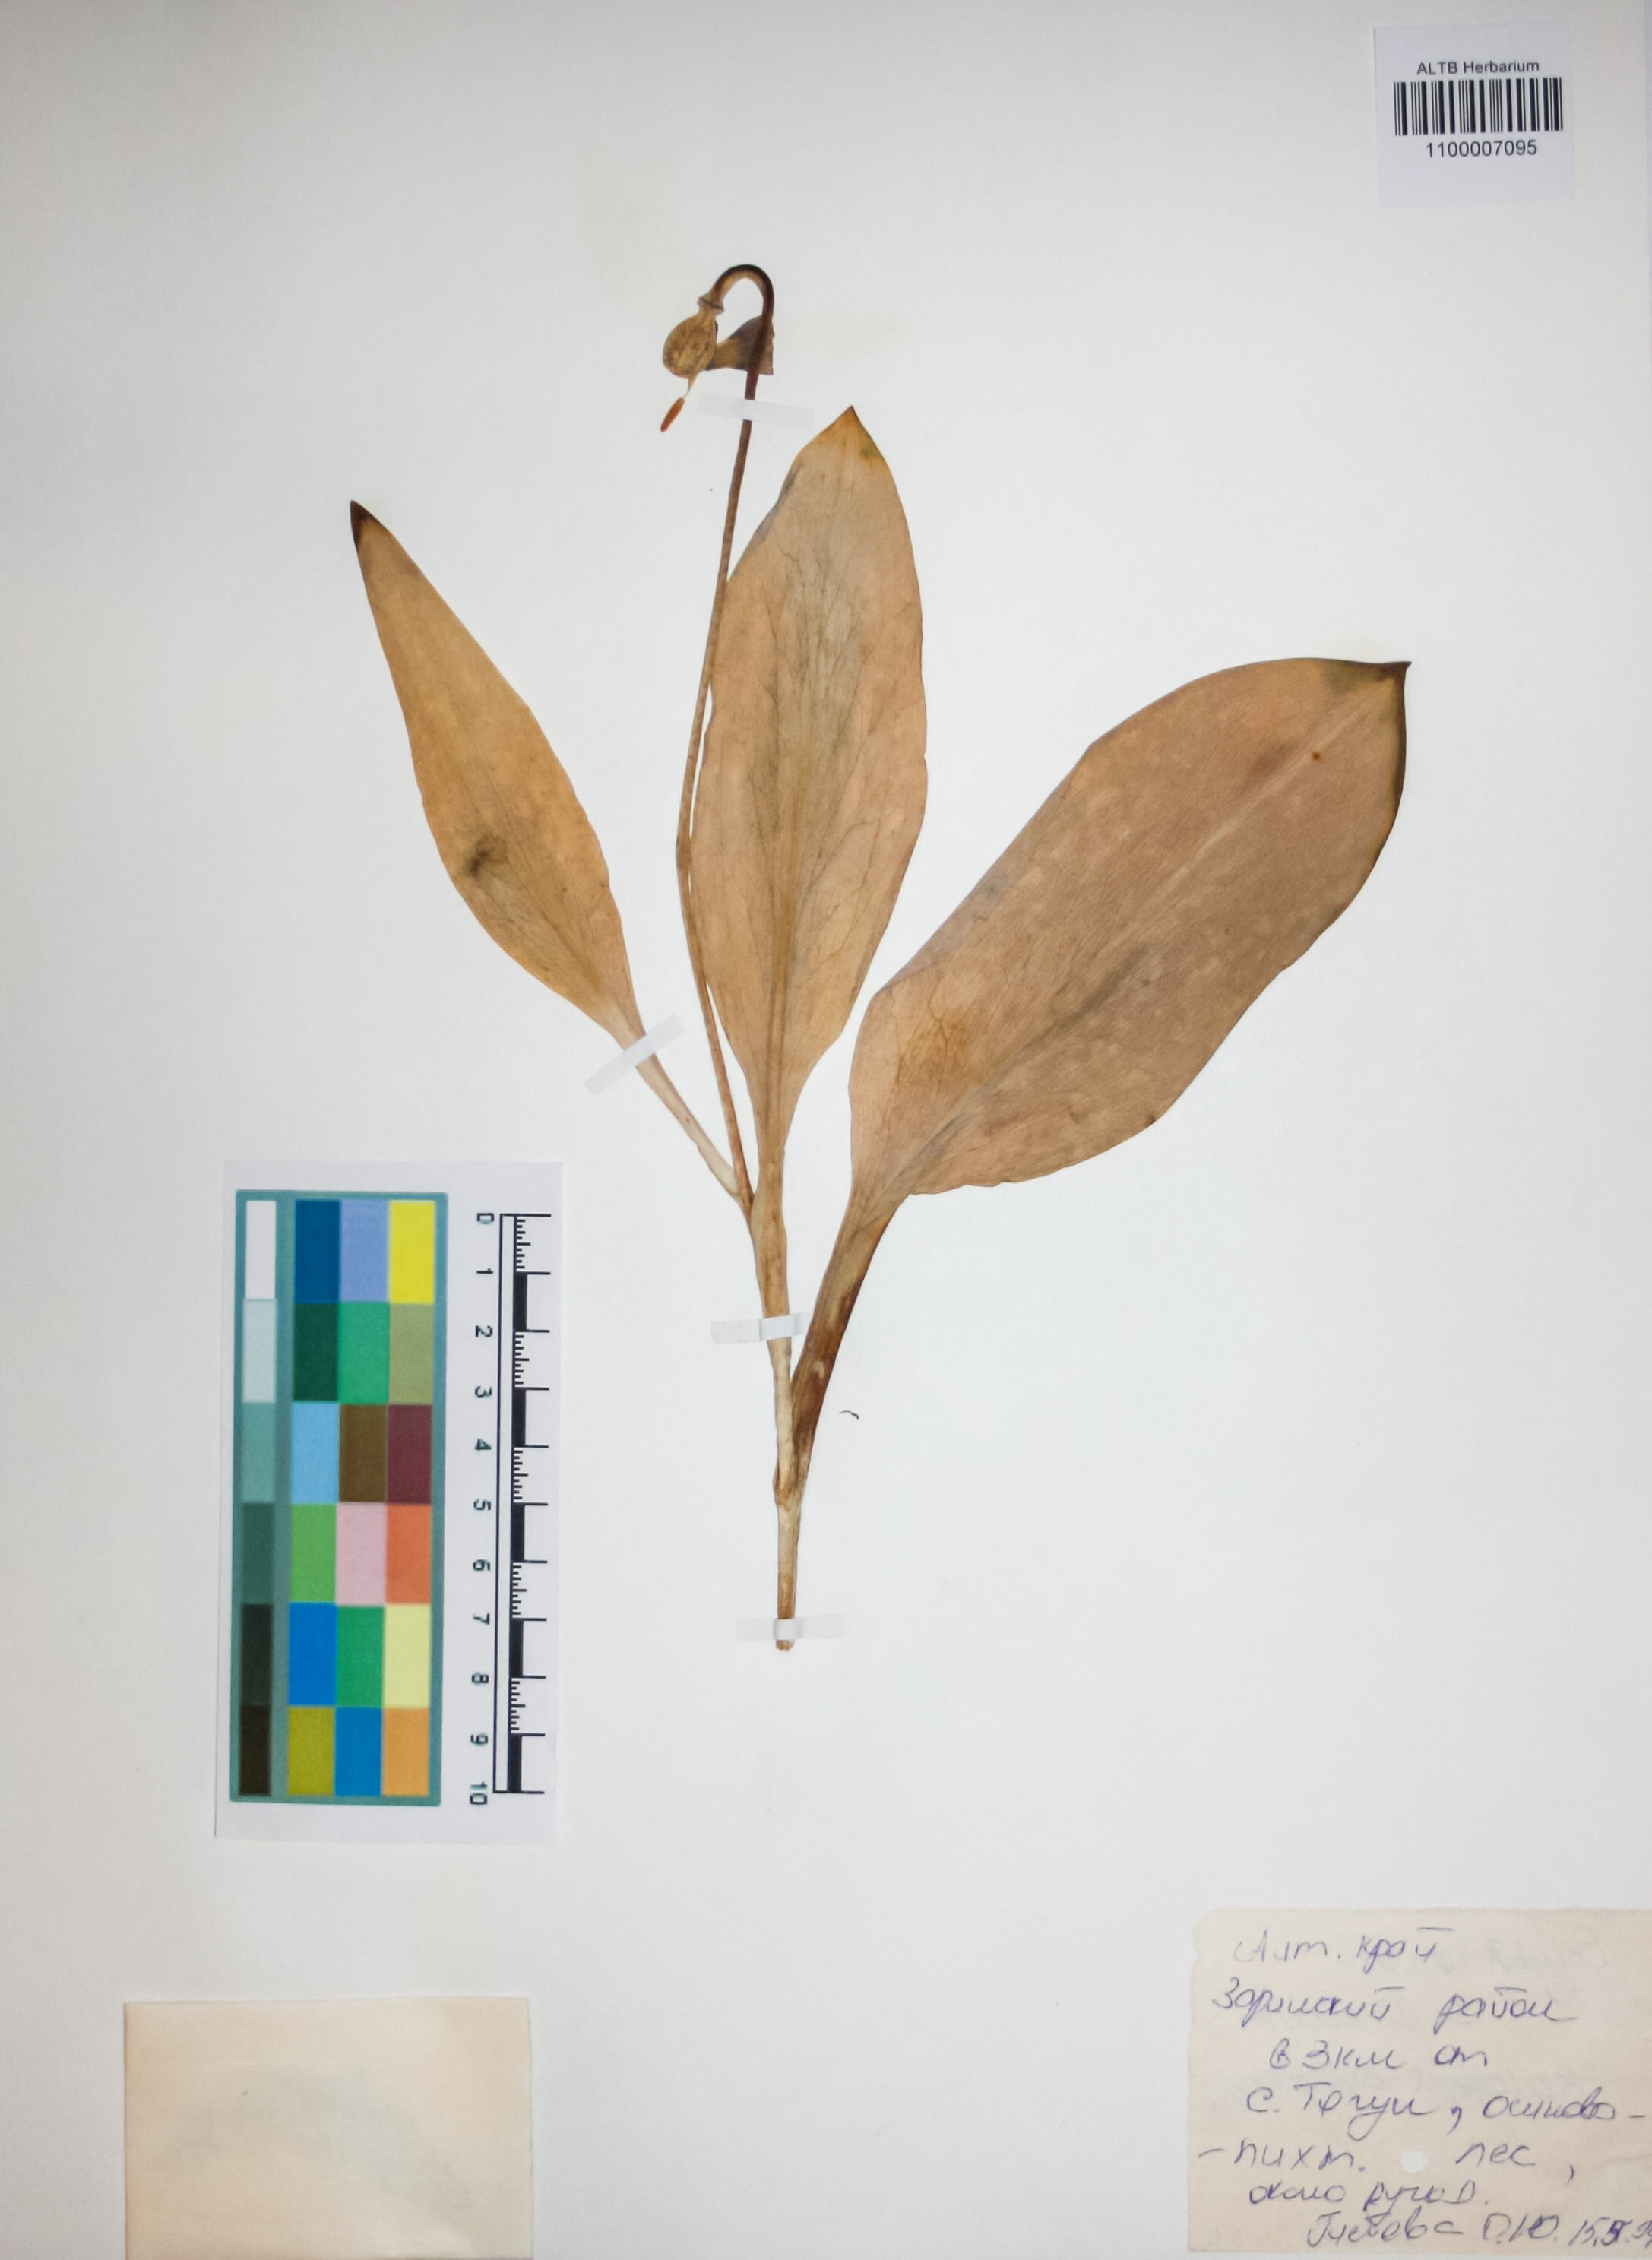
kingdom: Plantae
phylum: Tracheophyta
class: Liliopsida
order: Liliales
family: Liliaceae
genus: Erythronium
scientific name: Erythronium sibiricum
